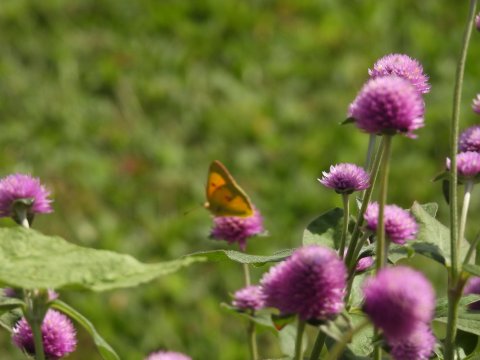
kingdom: Animalia
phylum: Arthropoda
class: Insecta
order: Lepidoptera
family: Pieridae
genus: Colias
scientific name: Colias eurytheme
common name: Orange Sulphur
